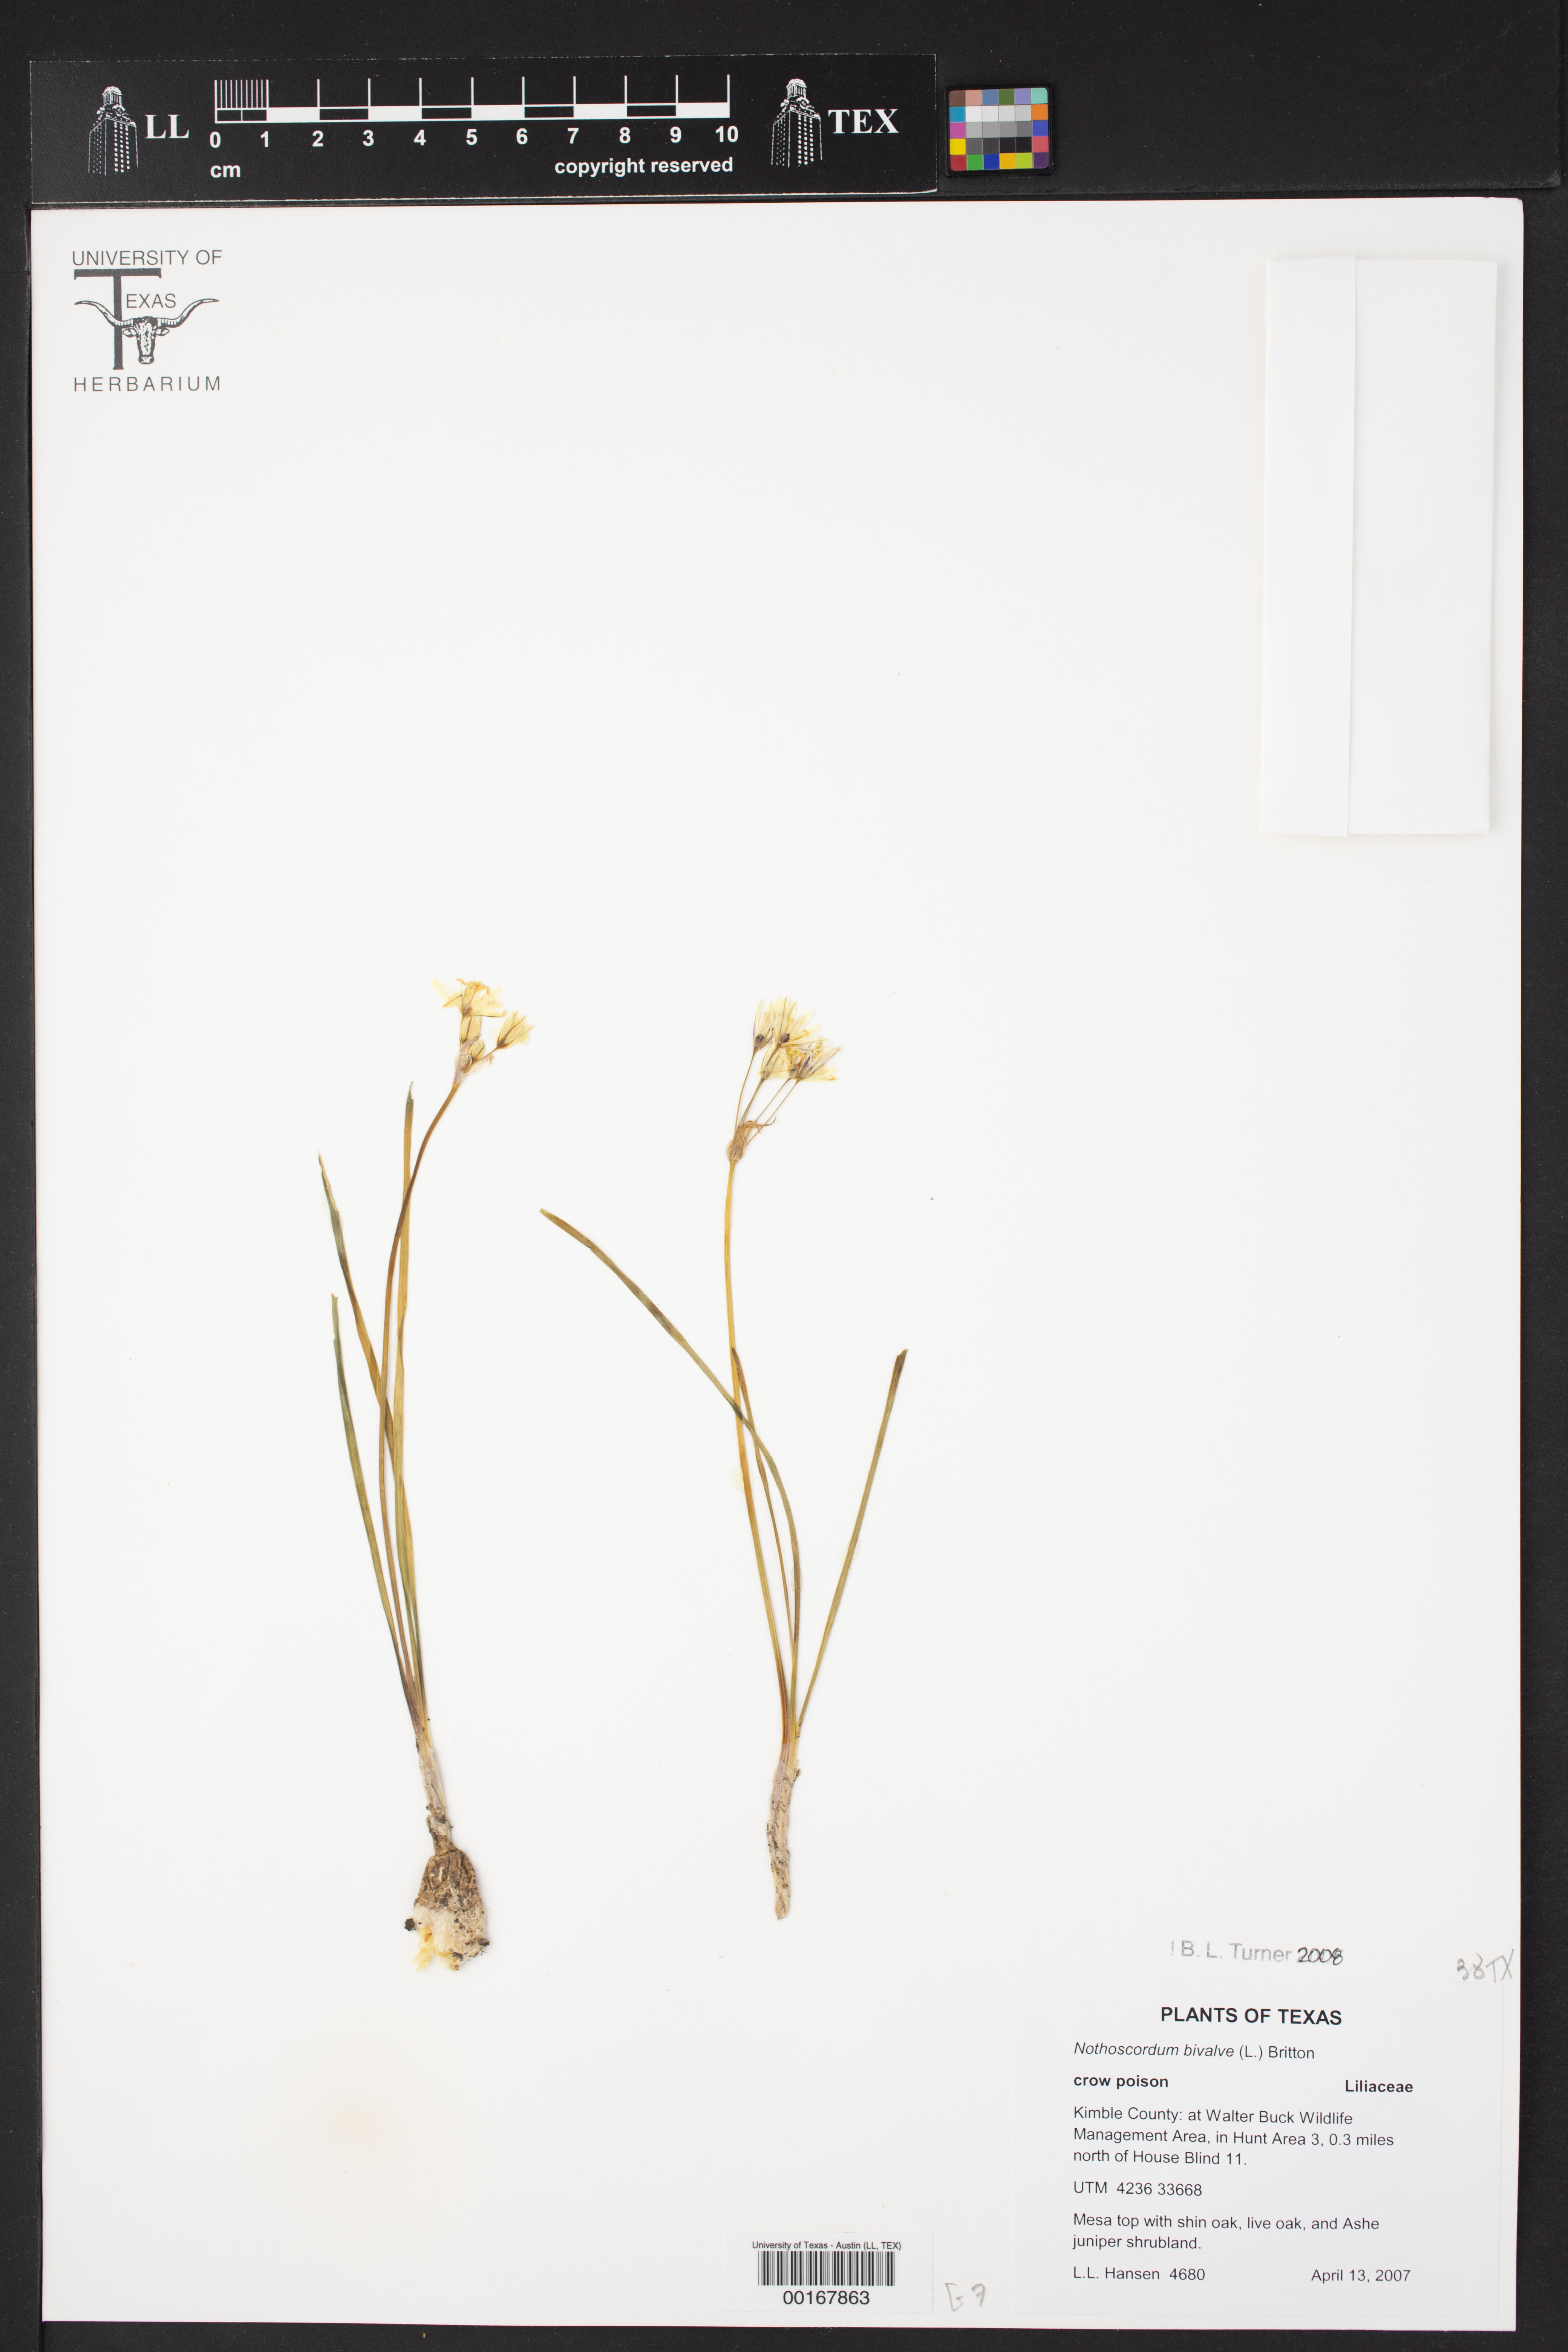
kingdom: Plantae
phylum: Tracheophyta
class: Liliopsida
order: Asparagales
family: Amaryllidaceae
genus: Nothoscordum
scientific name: Nothoscordum bivalve
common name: Crow-poison
